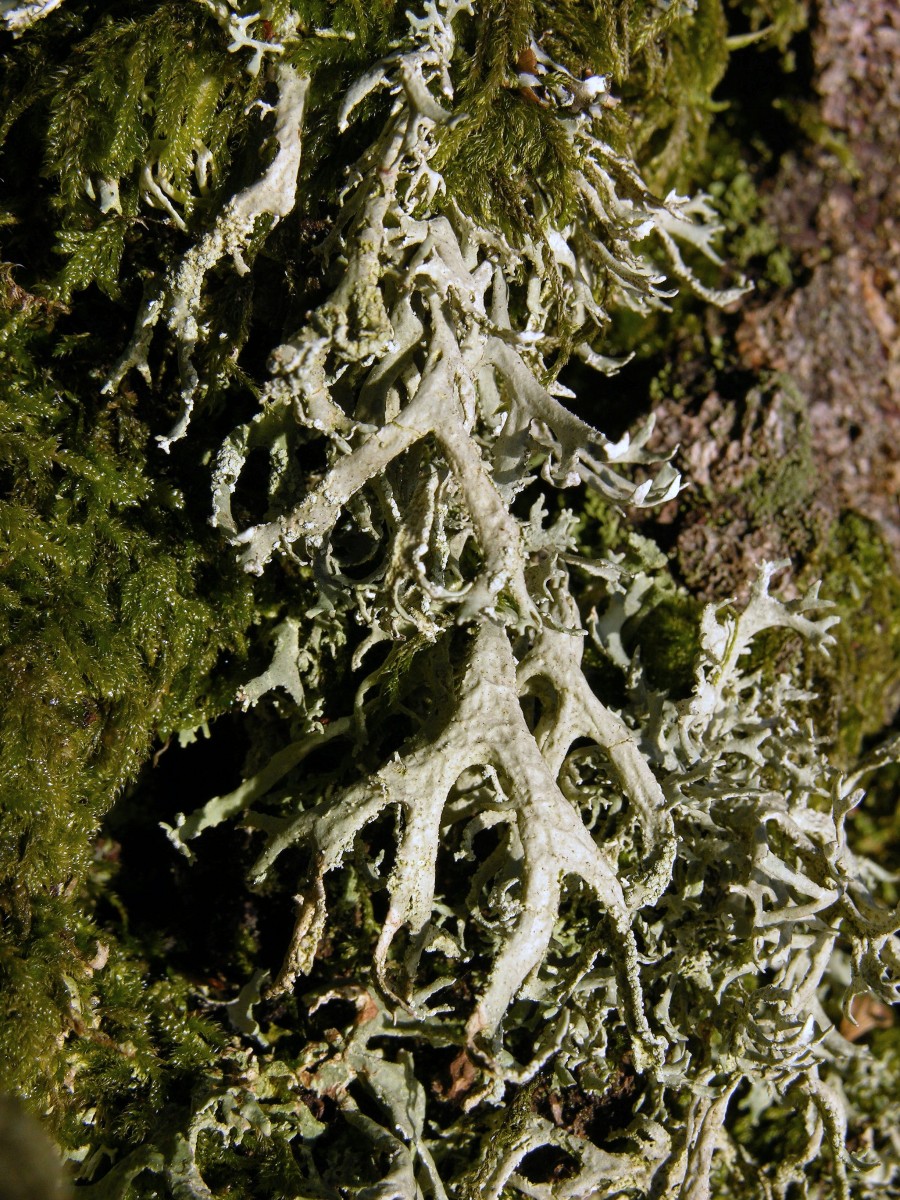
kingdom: Fungi
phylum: Ascomycota
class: Lecanoromycetes
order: Lecanorales
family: Parmeliaceae
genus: Evernia
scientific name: Evernia prunastri
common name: almindelig slåenlav
